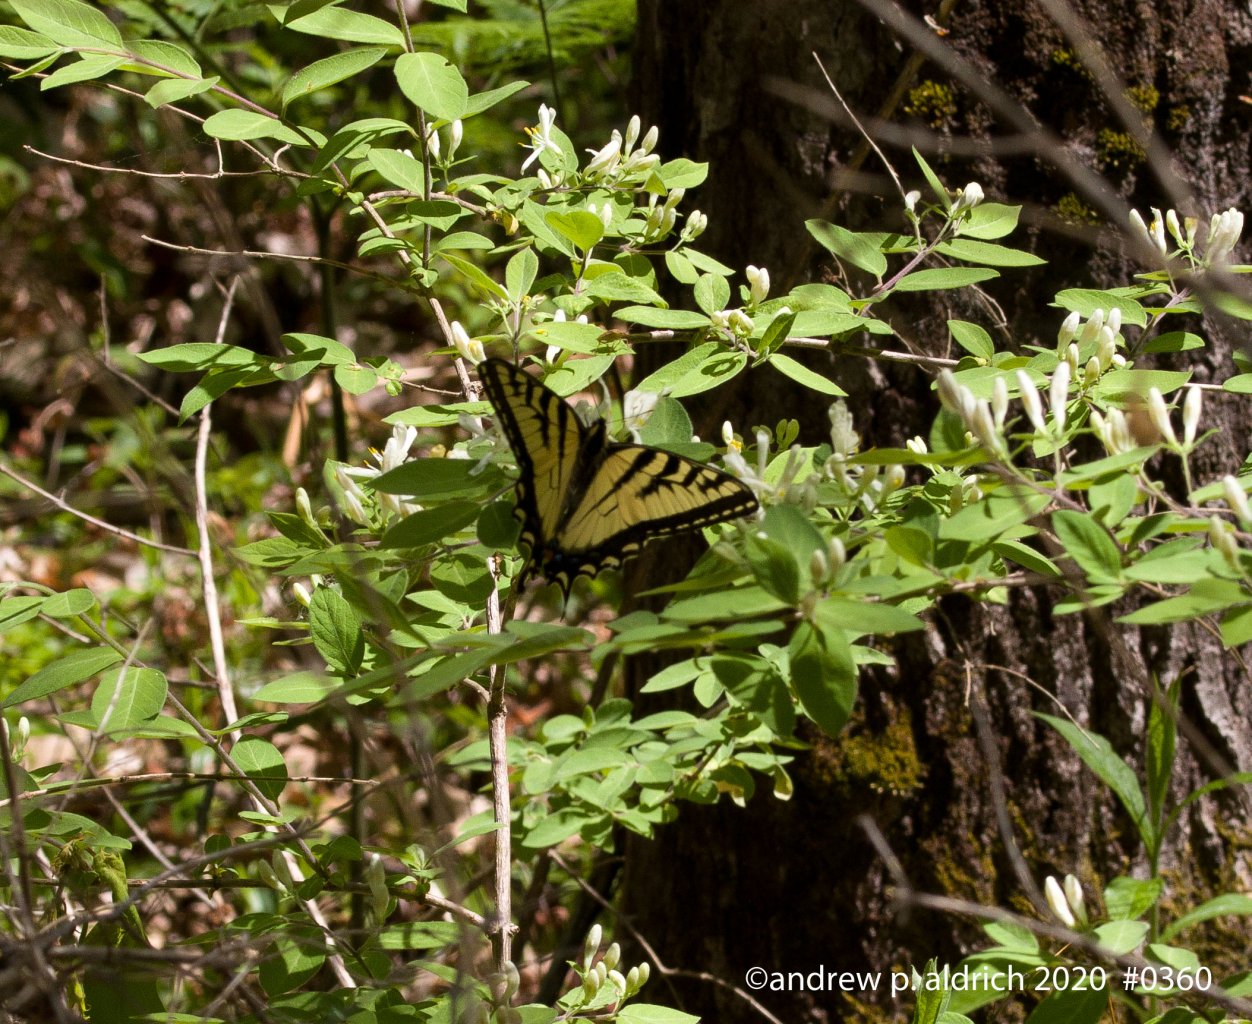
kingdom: Animalia
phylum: Arthropoda
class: Insecta
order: Lepidoptera
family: Papilionidae
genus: Papilio
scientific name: Papilio
